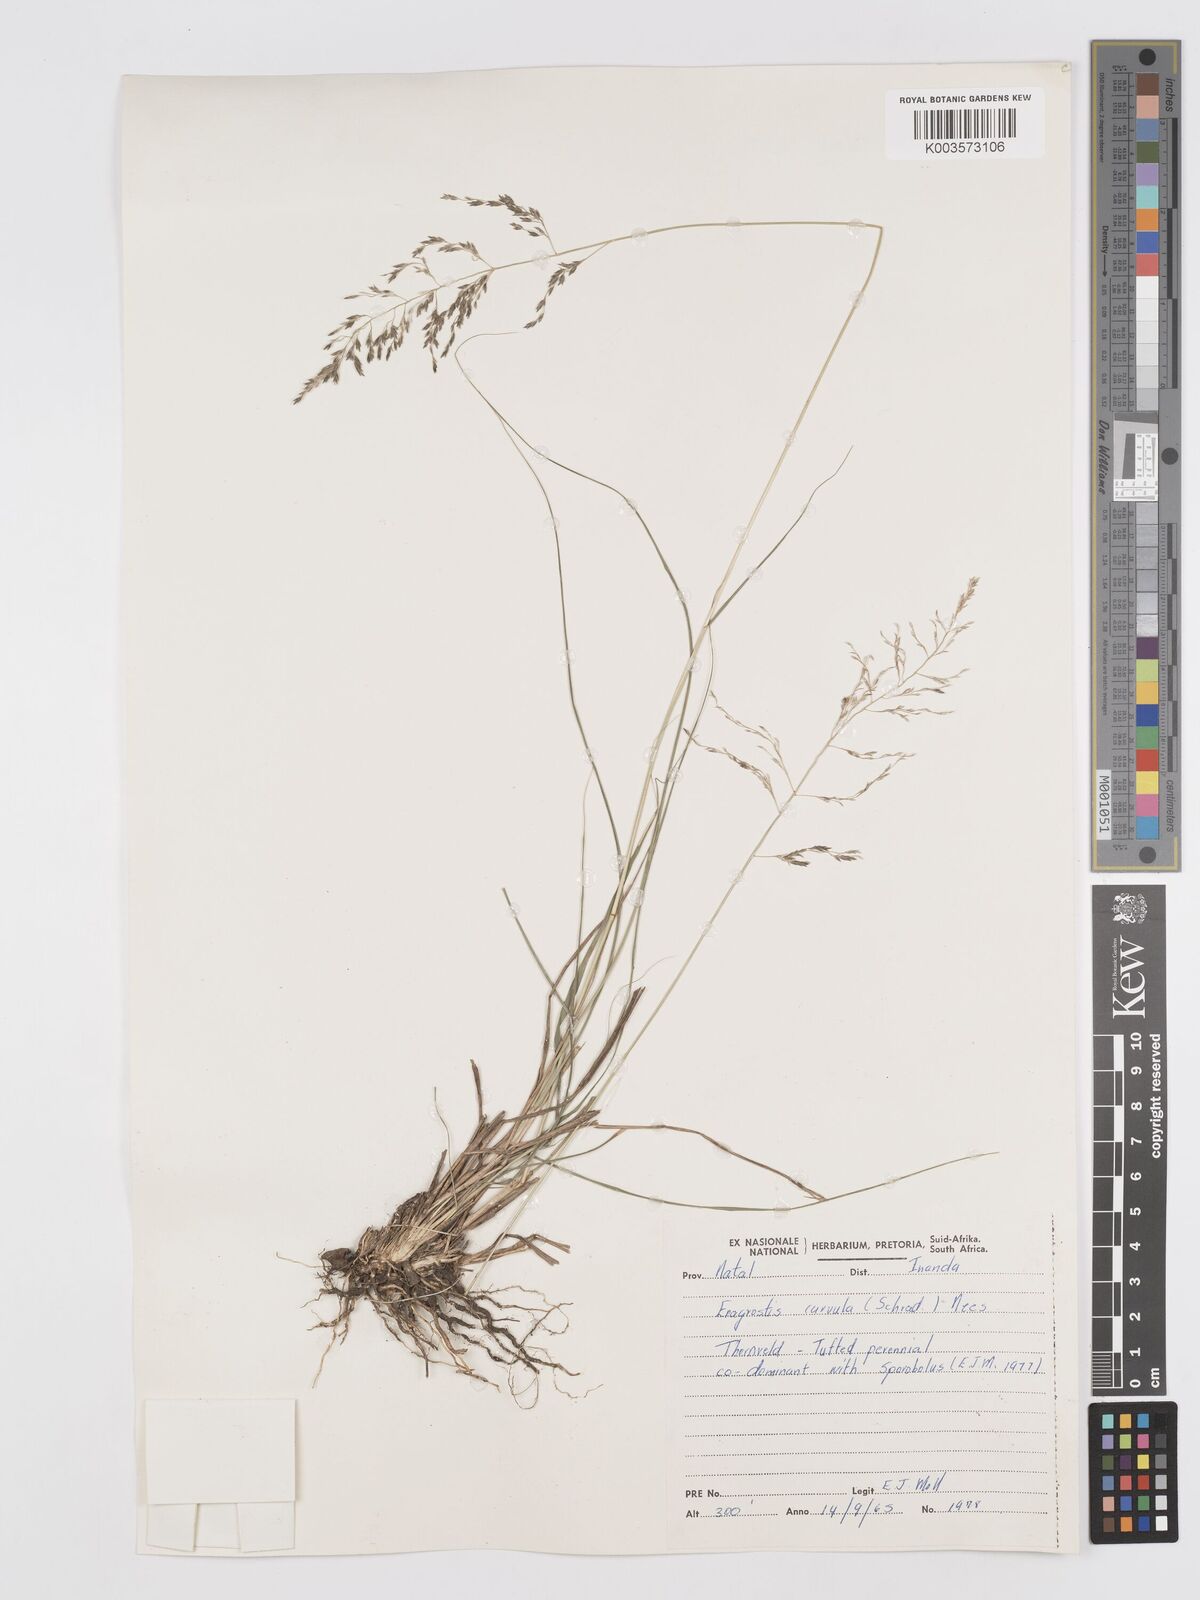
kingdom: Plantae
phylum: Tracheophyta
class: Liliopsida
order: Poales
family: Poaceae
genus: Eragrostis
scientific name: Eragrostis curvula
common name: African love-grass
